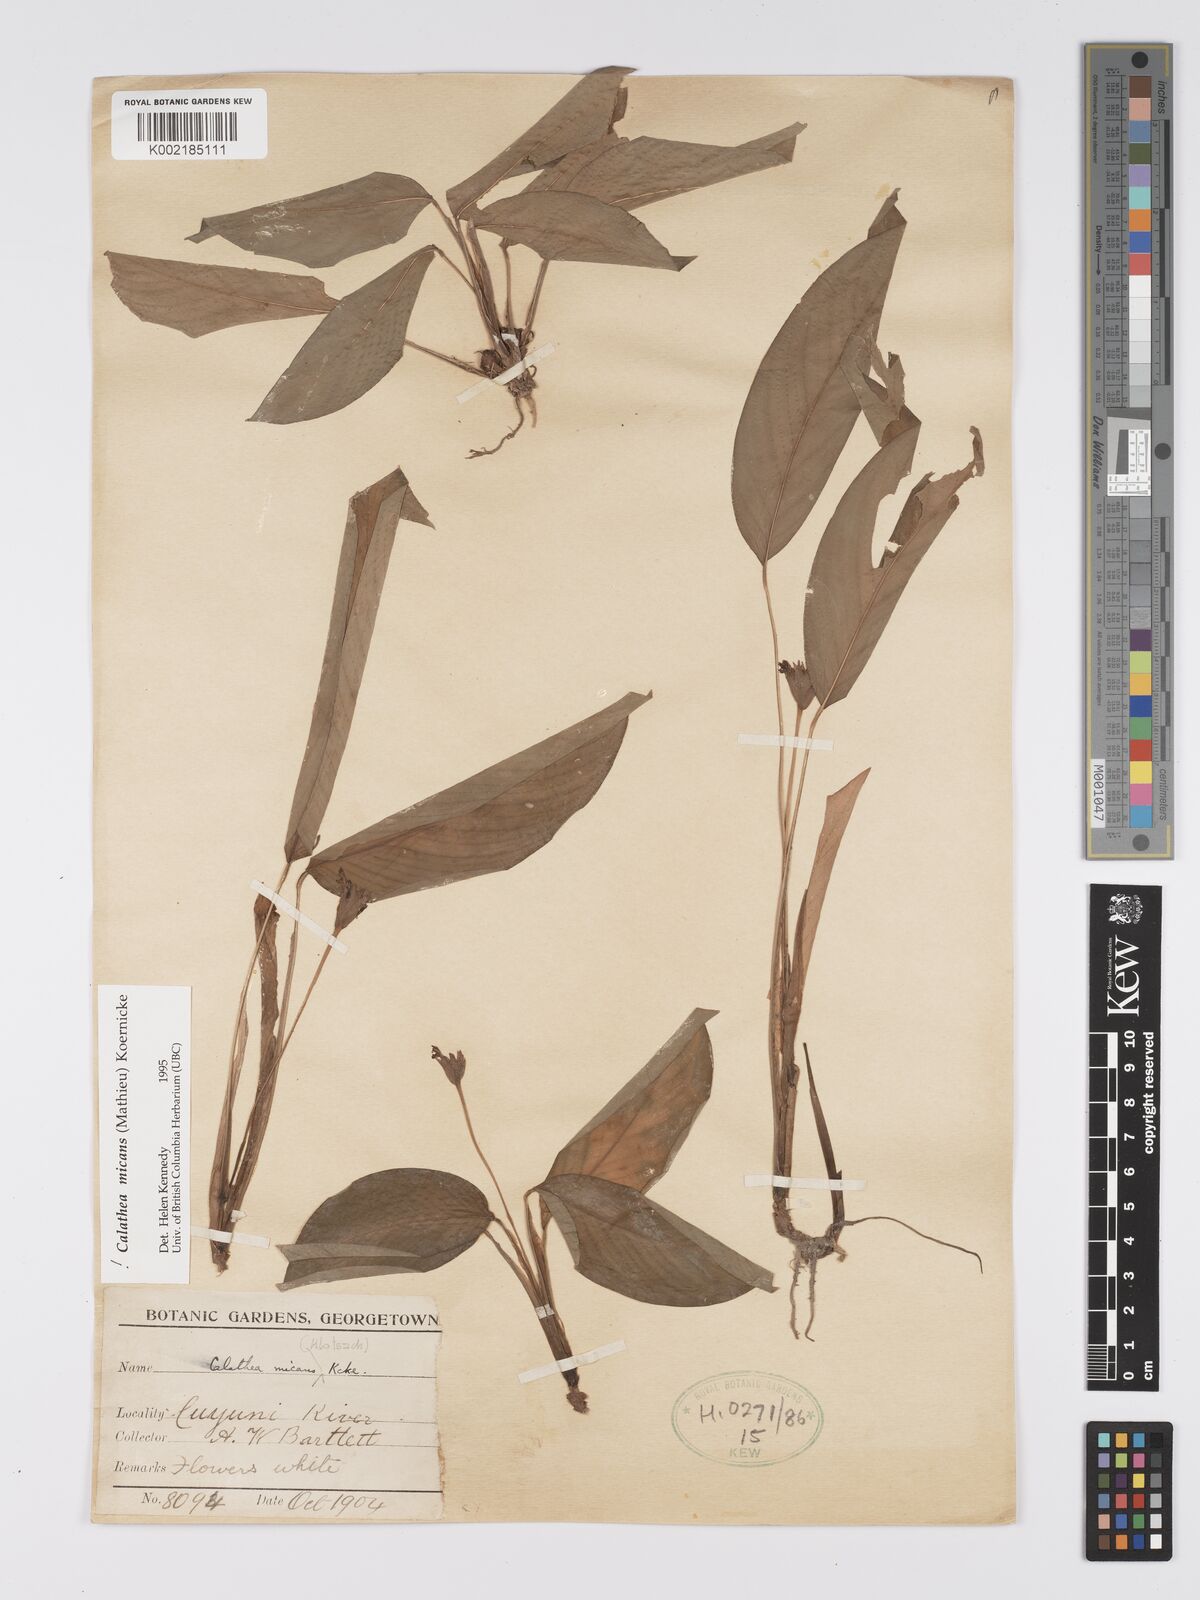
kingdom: Plantae
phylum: Tracheophyta
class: Liliopsida
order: Zingiberales
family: Marantaceae
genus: Goeppertia
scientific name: Goeppertia micans
